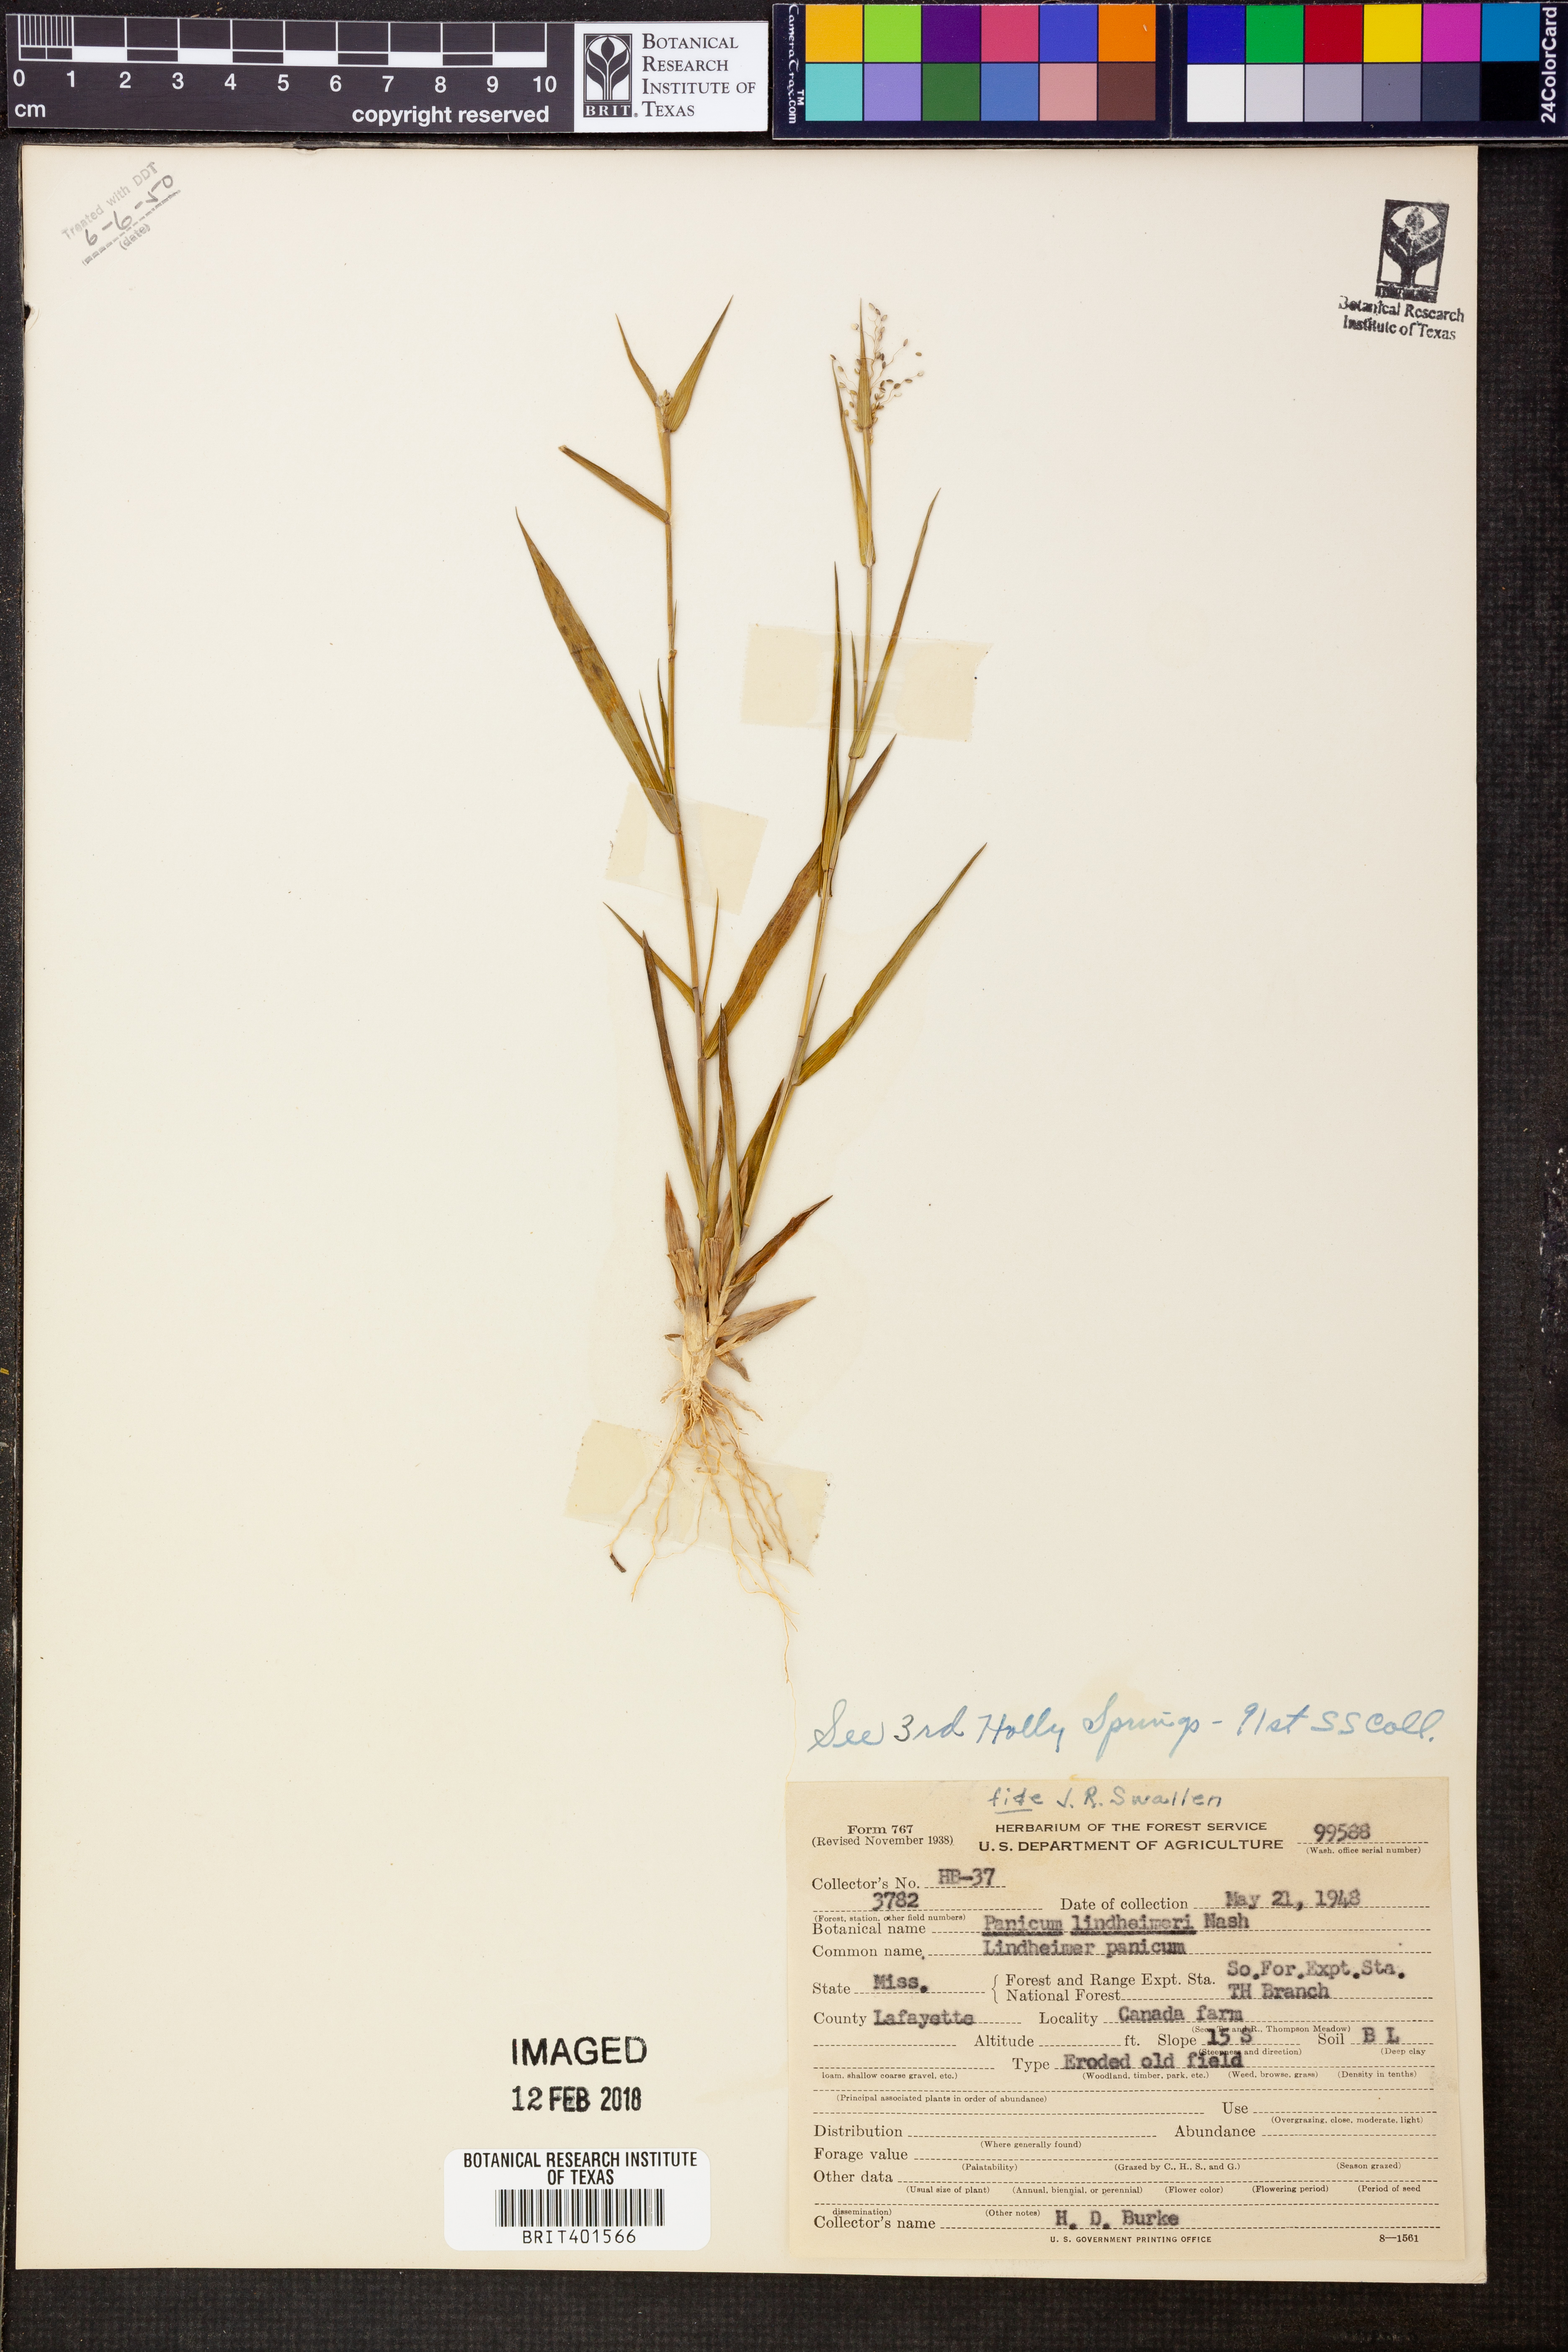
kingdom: Plantae
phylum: Tracheophyta
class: Liliopsida
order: Poales
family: Poaceae
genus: Dichanthelium
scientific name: Dichanthelium lindheimeri
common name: Lindheimer's panicgrass
